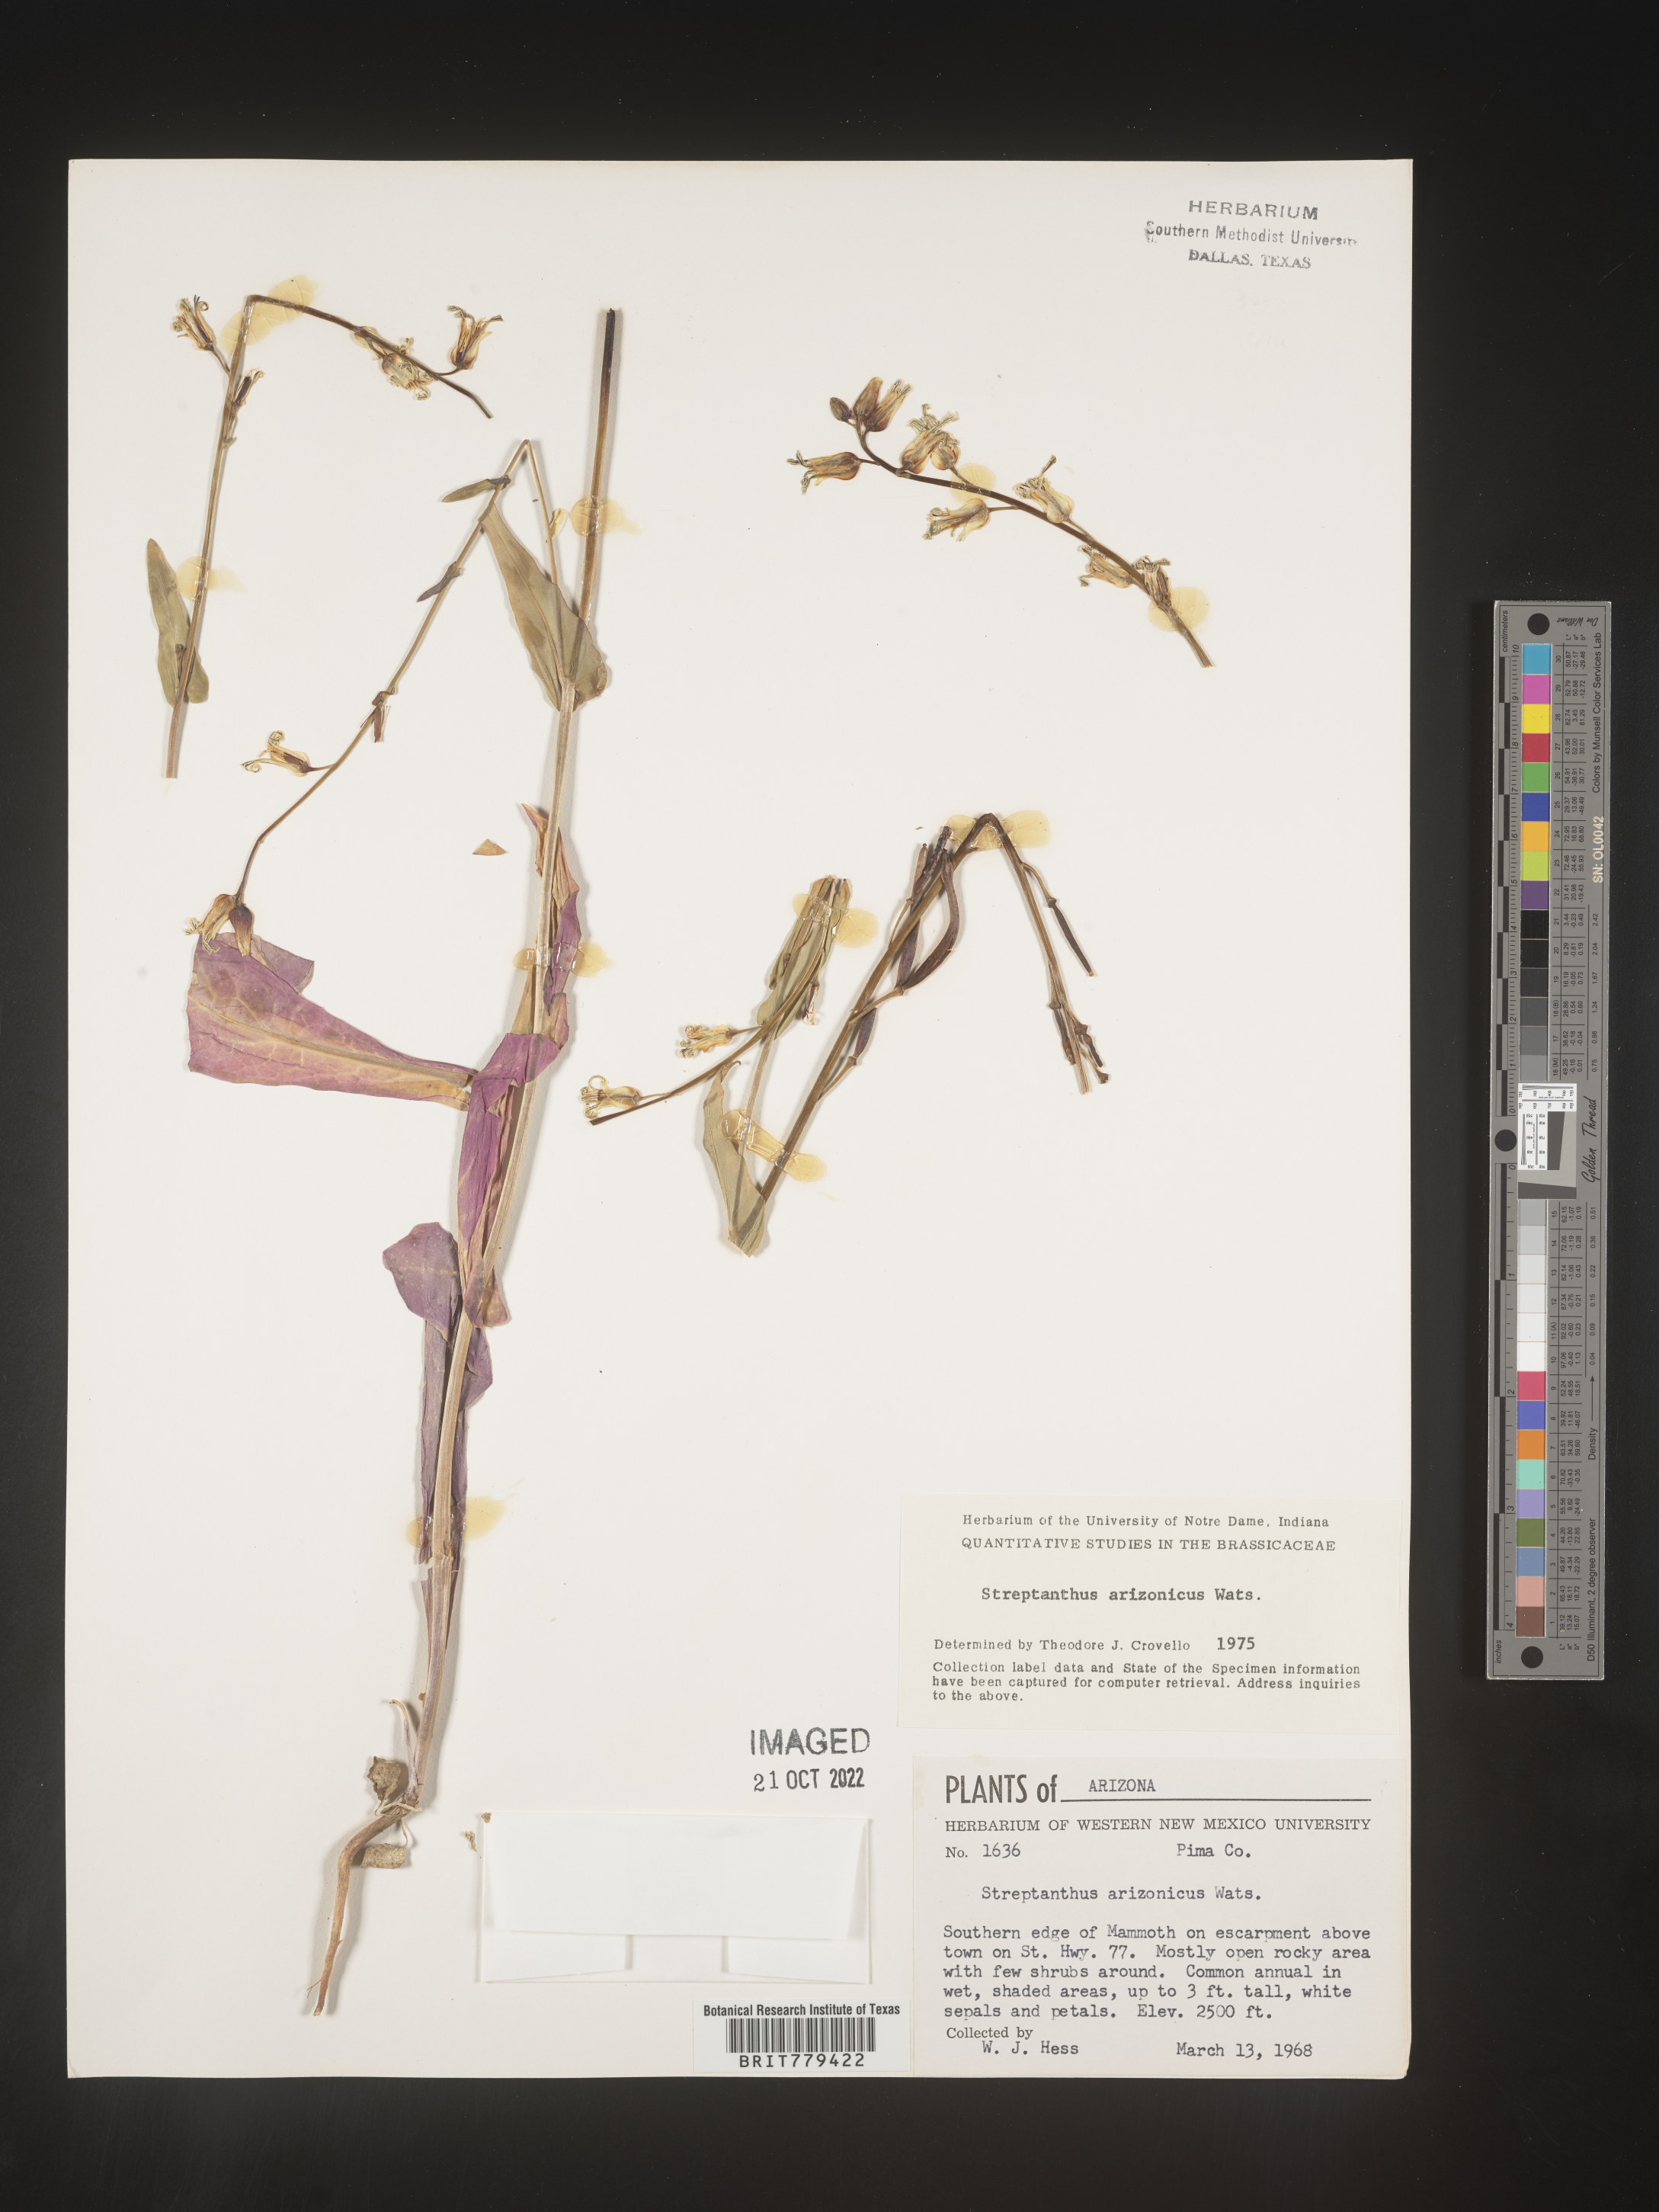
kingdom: Plantae
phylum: Tracheophyta
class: Magnoliopsida
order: Brassicales
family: Brassicaceae
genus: Streptanthus
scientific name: Streptanthus
